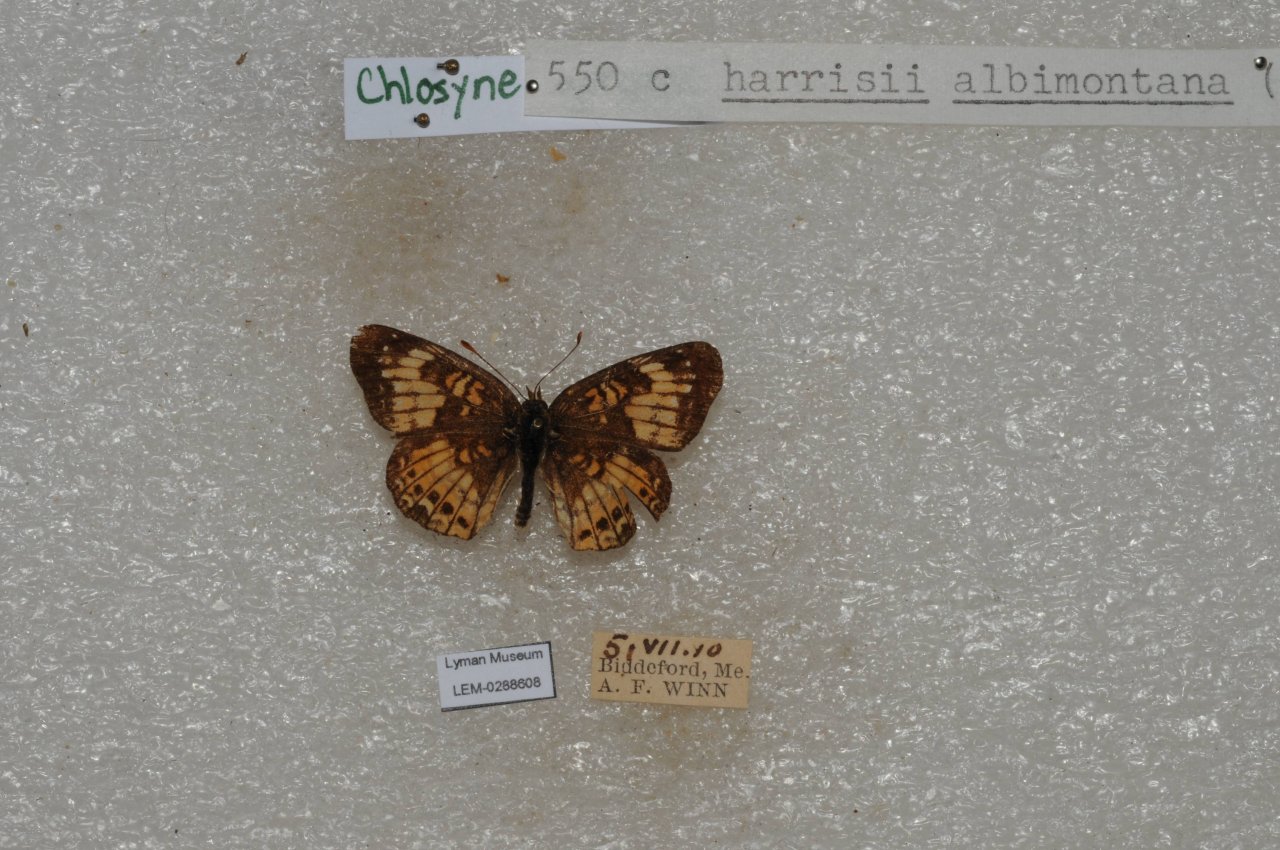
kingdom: Animalia
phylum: Arthropoda
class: Insecta
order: Lepidoptera
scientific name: Lepidoptera
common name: Butterflies
